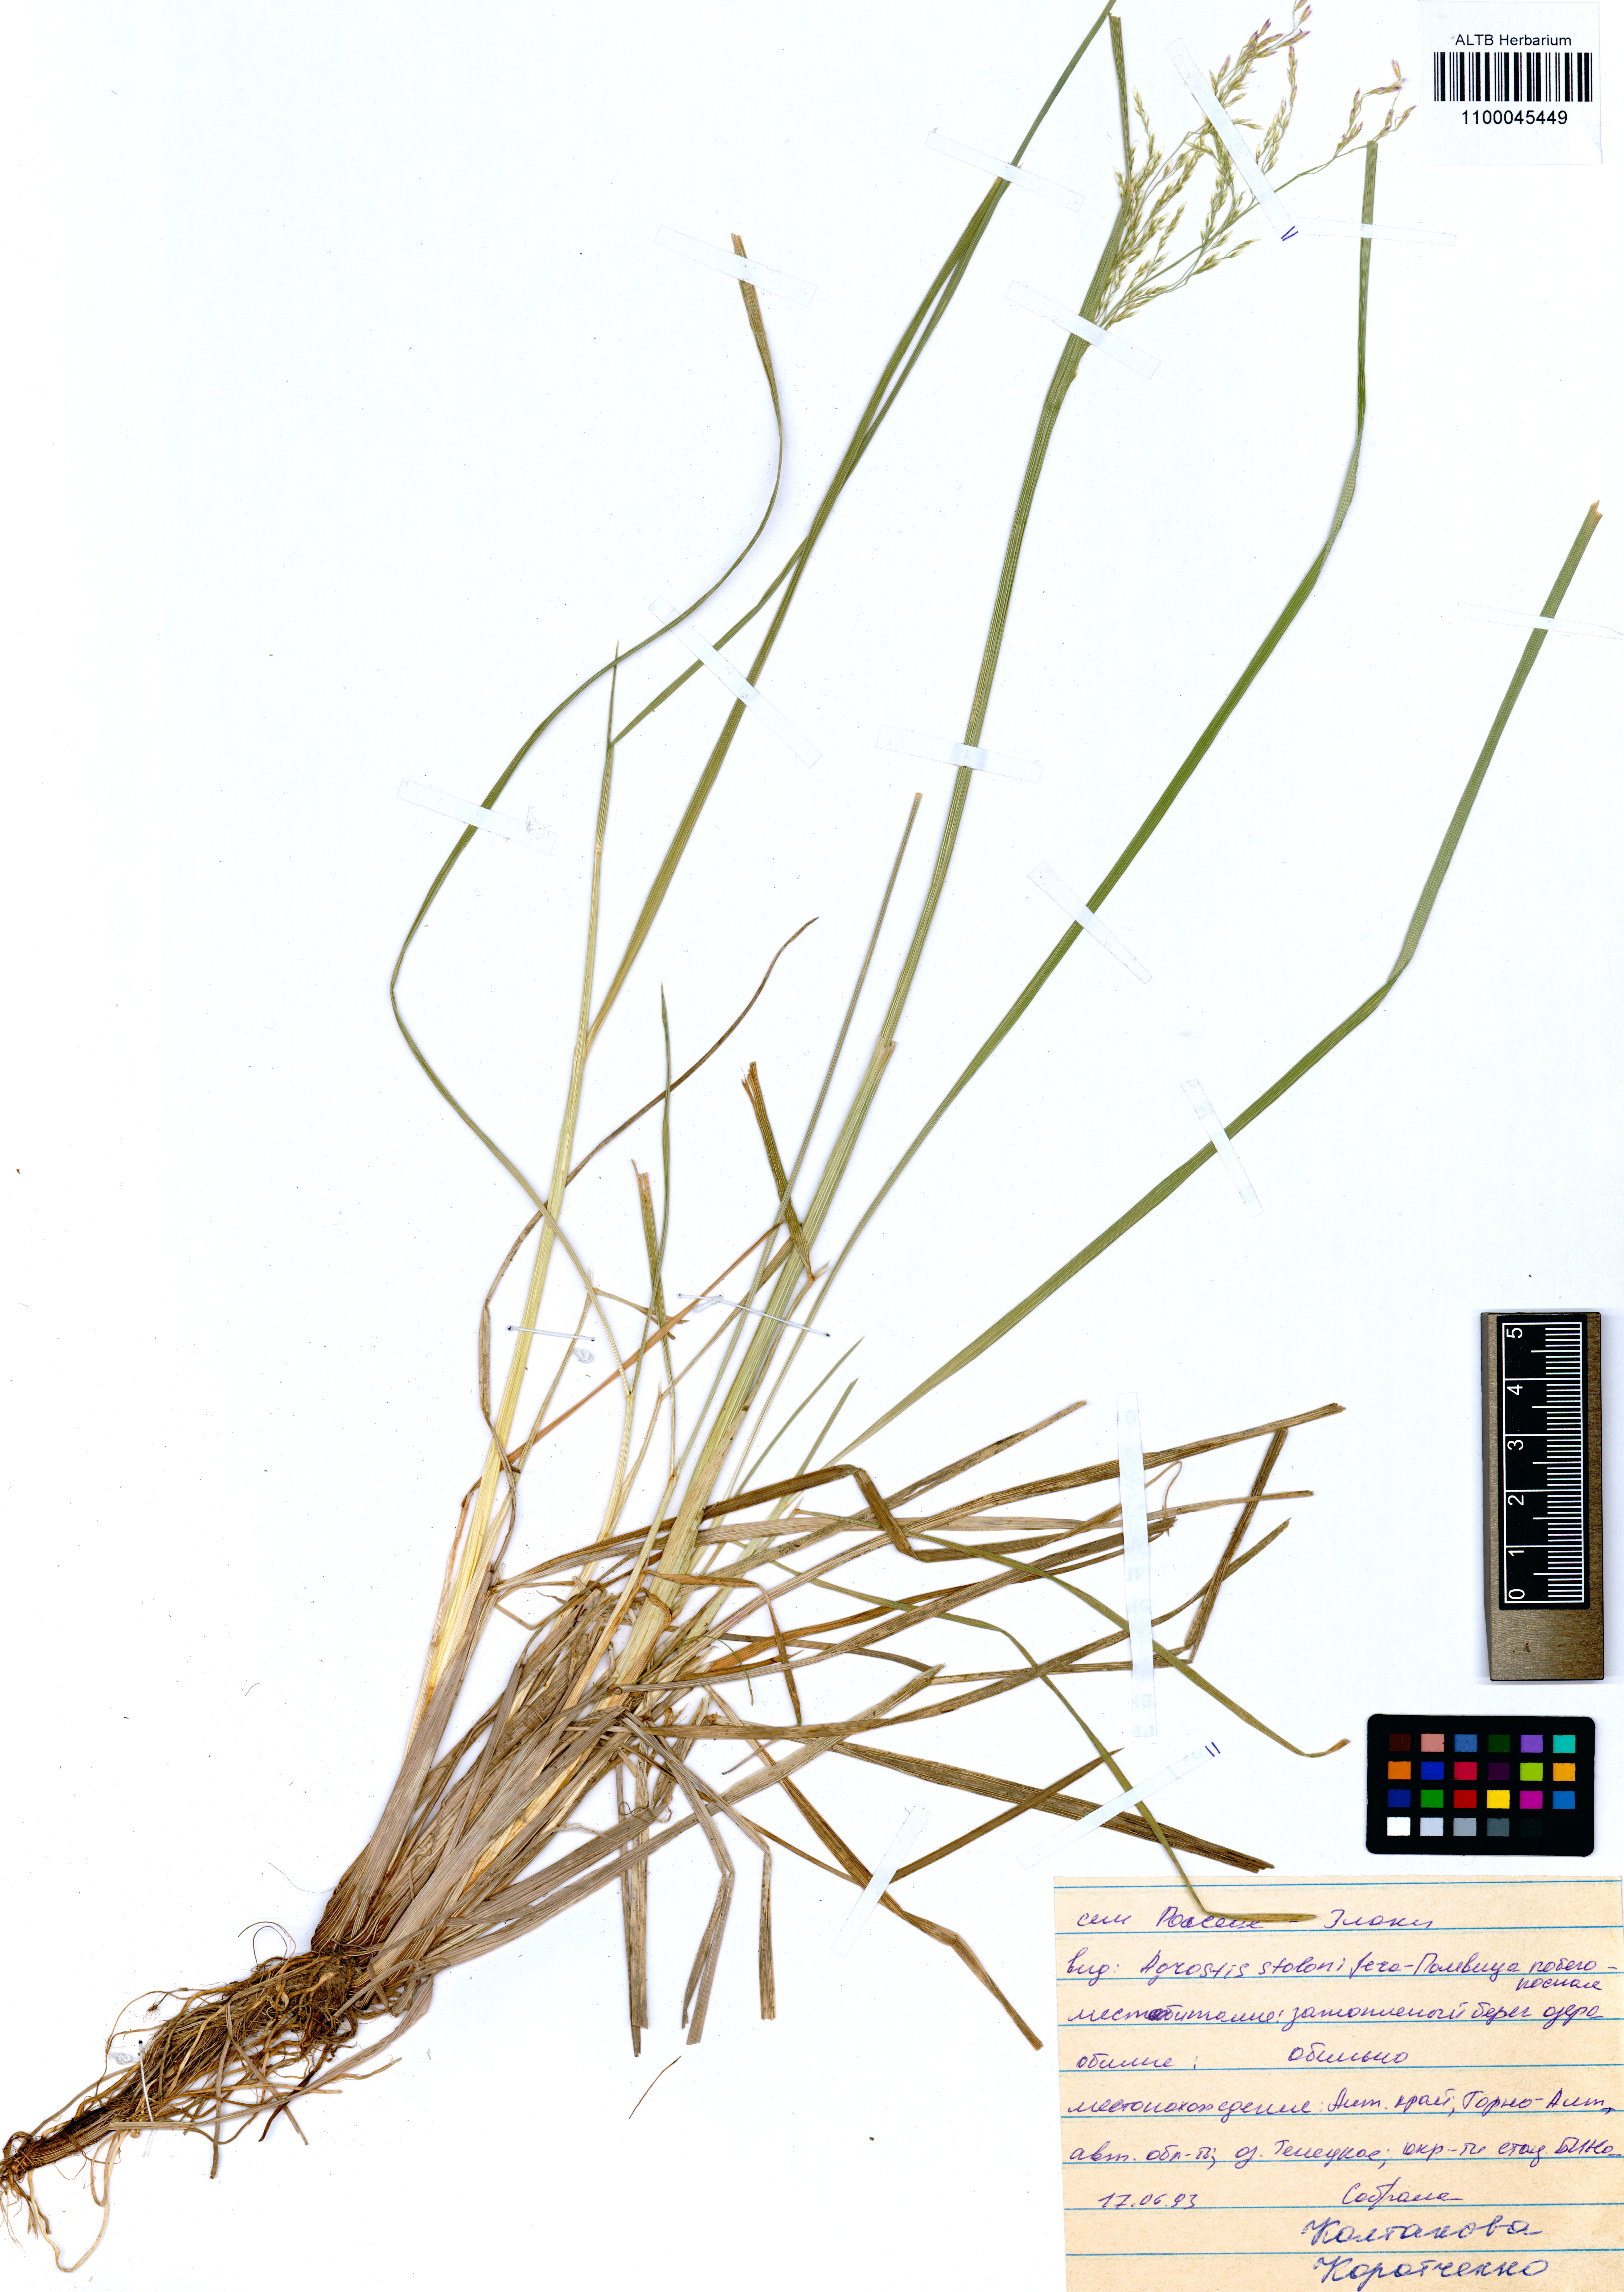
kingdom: Plantae
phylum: Tracheophyta
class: Liliopsida
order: Poales
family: Poaceae
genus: Agrostis
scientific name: Agrostis stolonifera
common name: Creeping bentgrass
